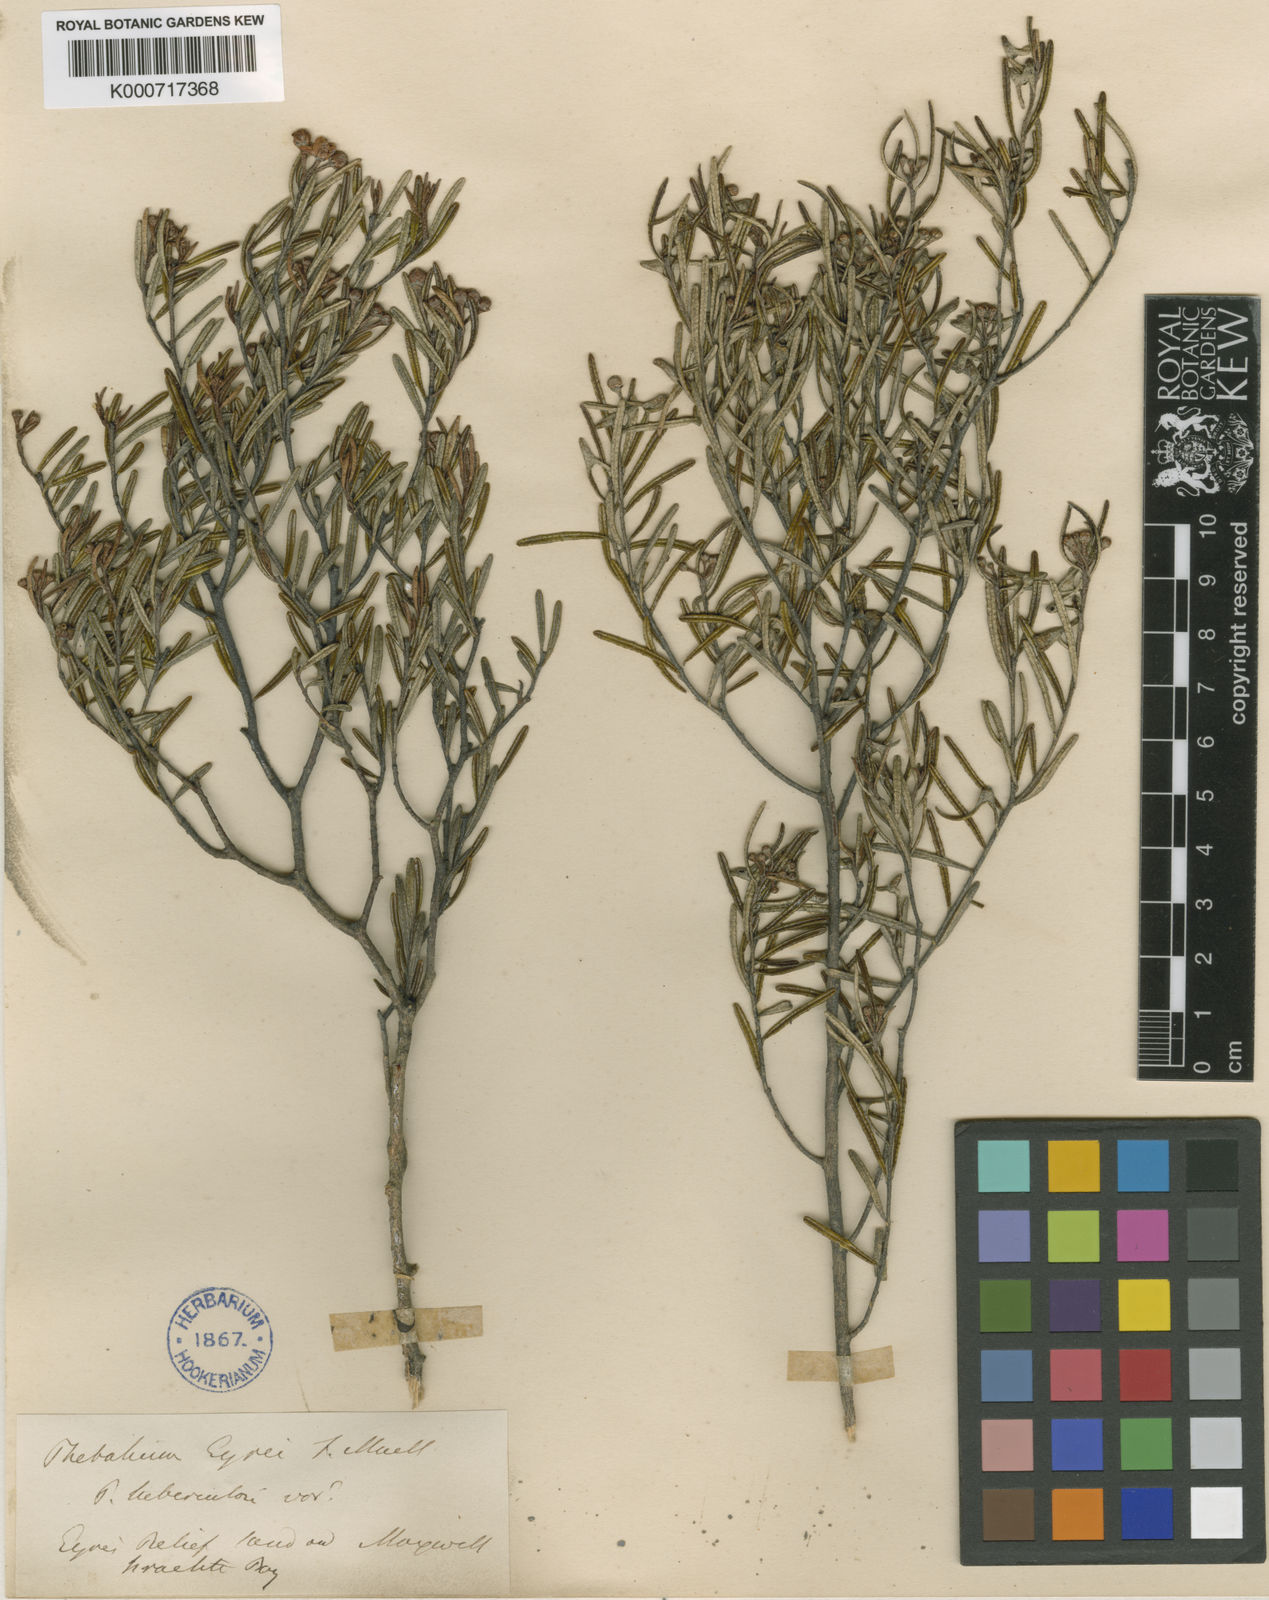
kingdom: Plantae
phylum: Tracheophyta
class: Magnoliopsida
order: Sapindales
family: Rutaceae
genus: Phebalium
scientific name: Phebalium
